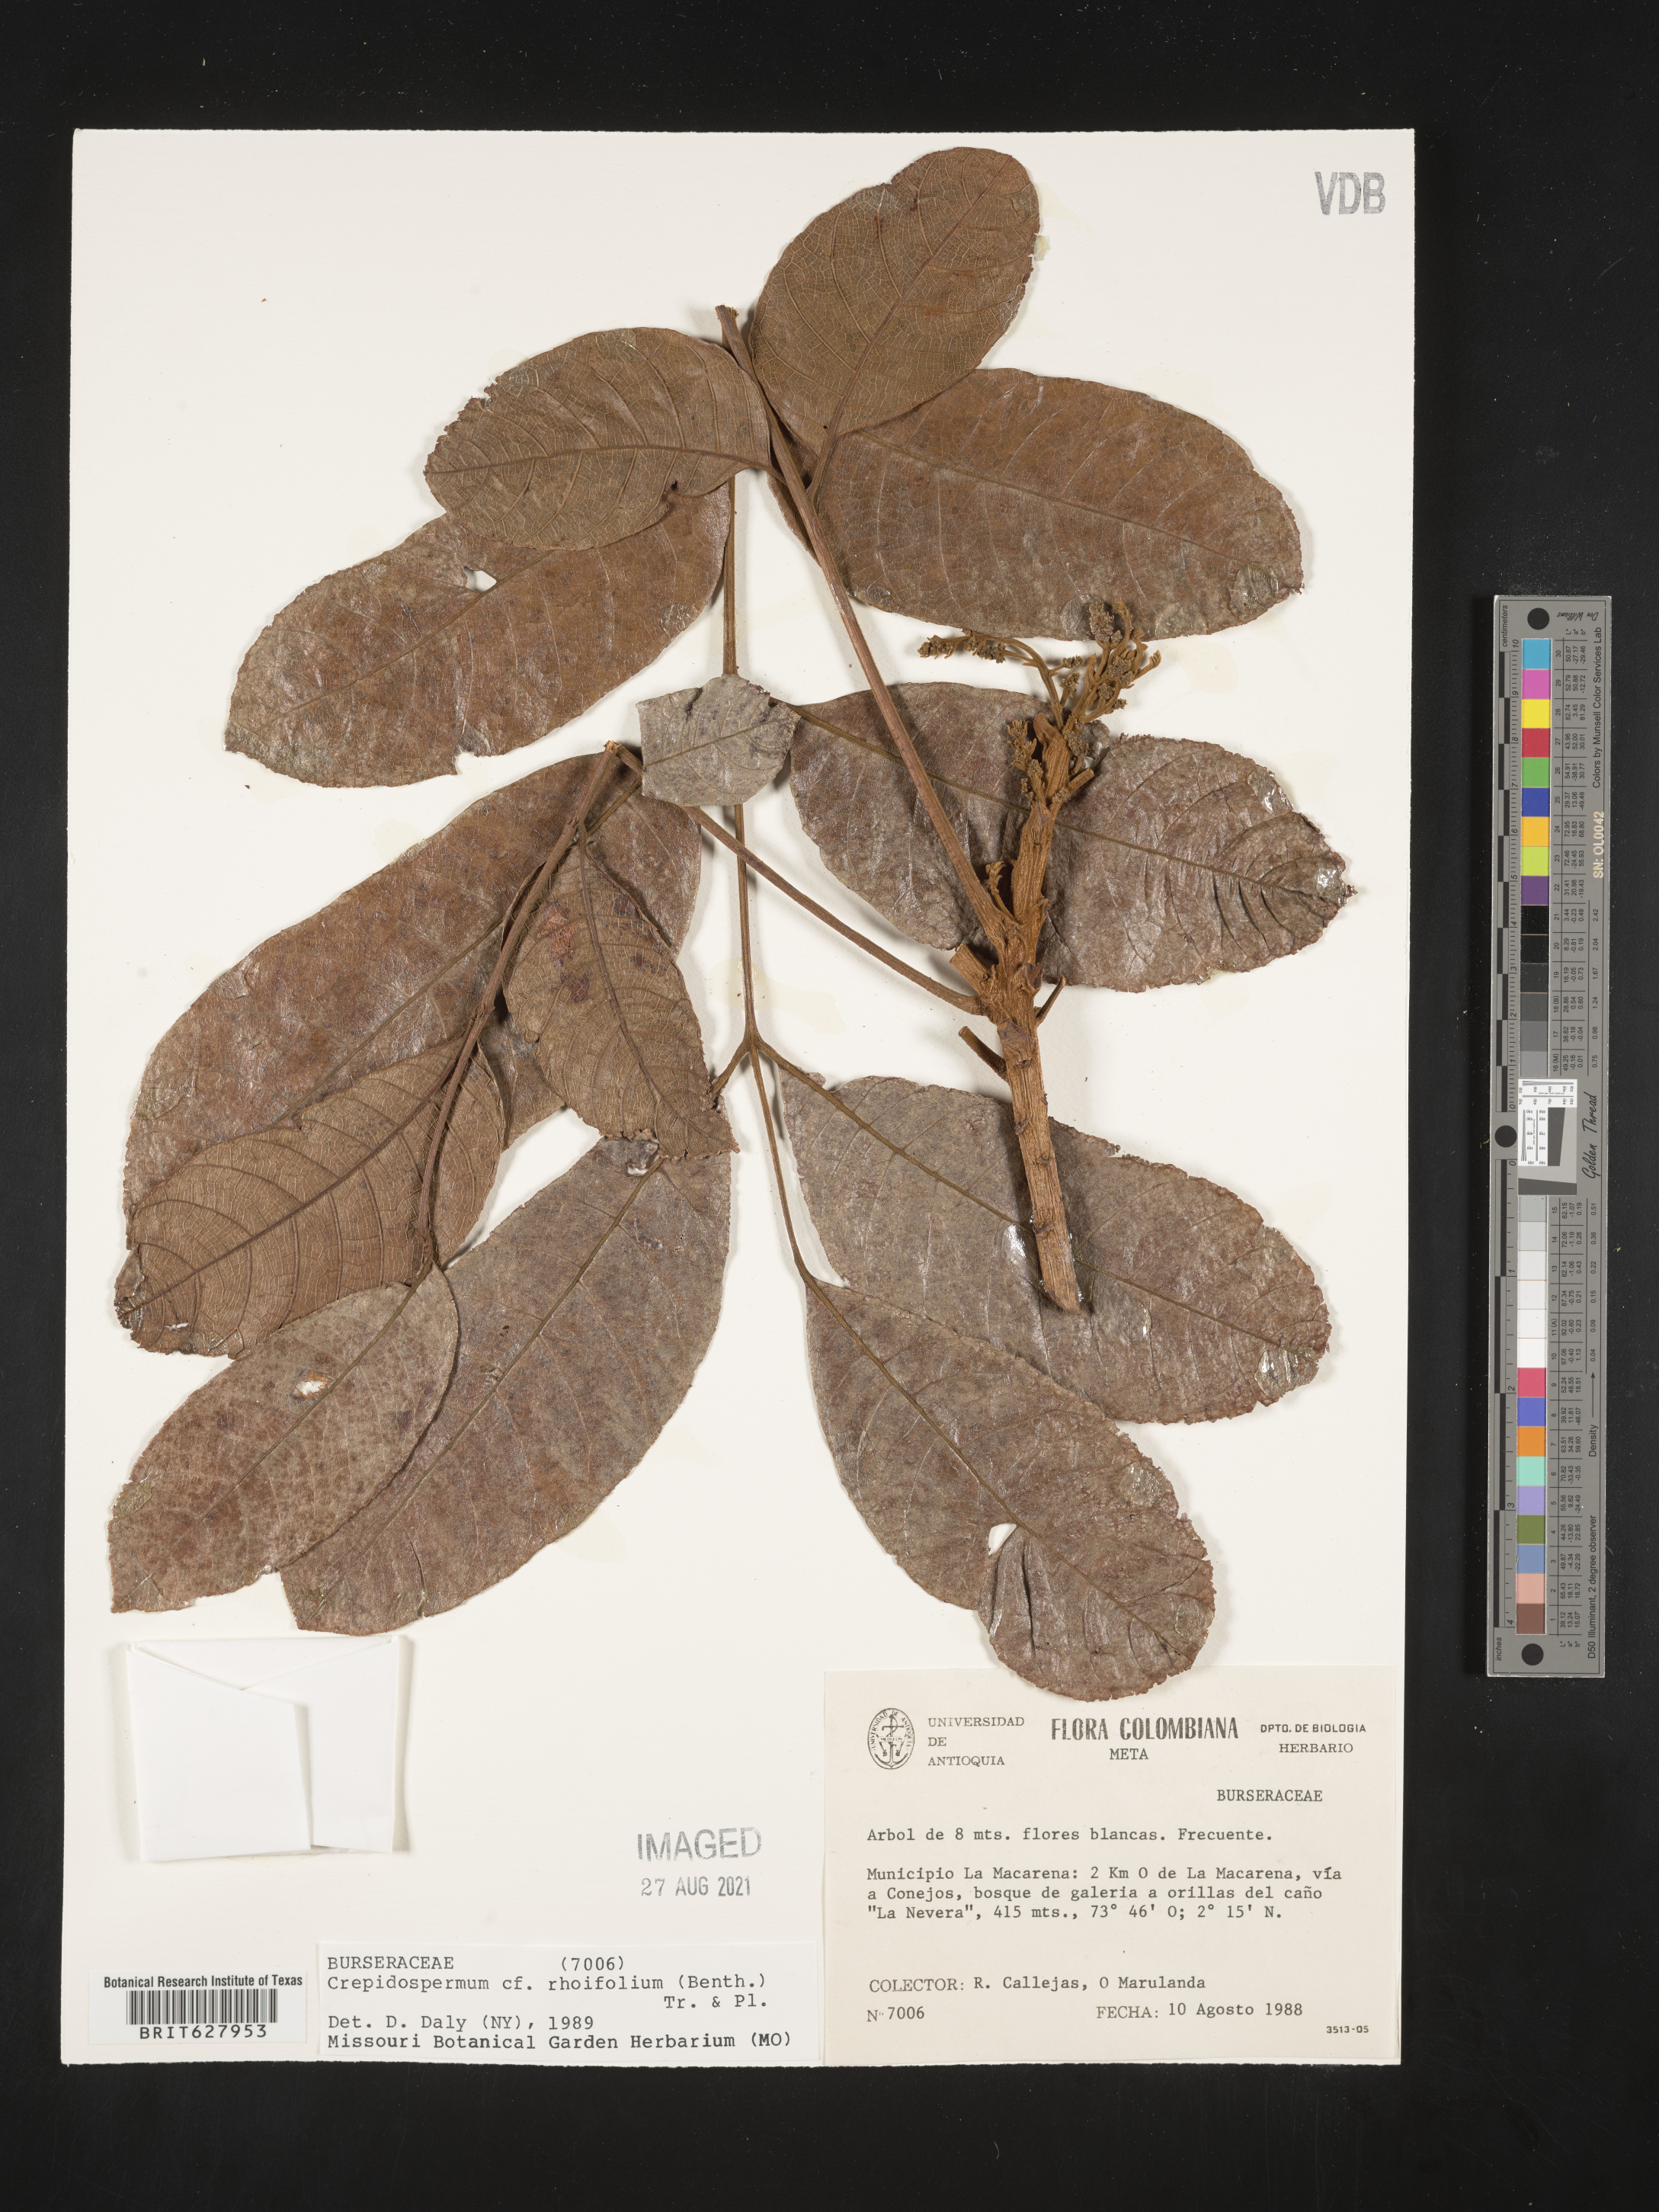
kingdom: Plantae
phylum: Tracheophyta
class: Magnoliopsida
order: Sapindales
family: Burseraceae
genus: Crepidospermum
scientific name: Crepidospermum rhoifolium
